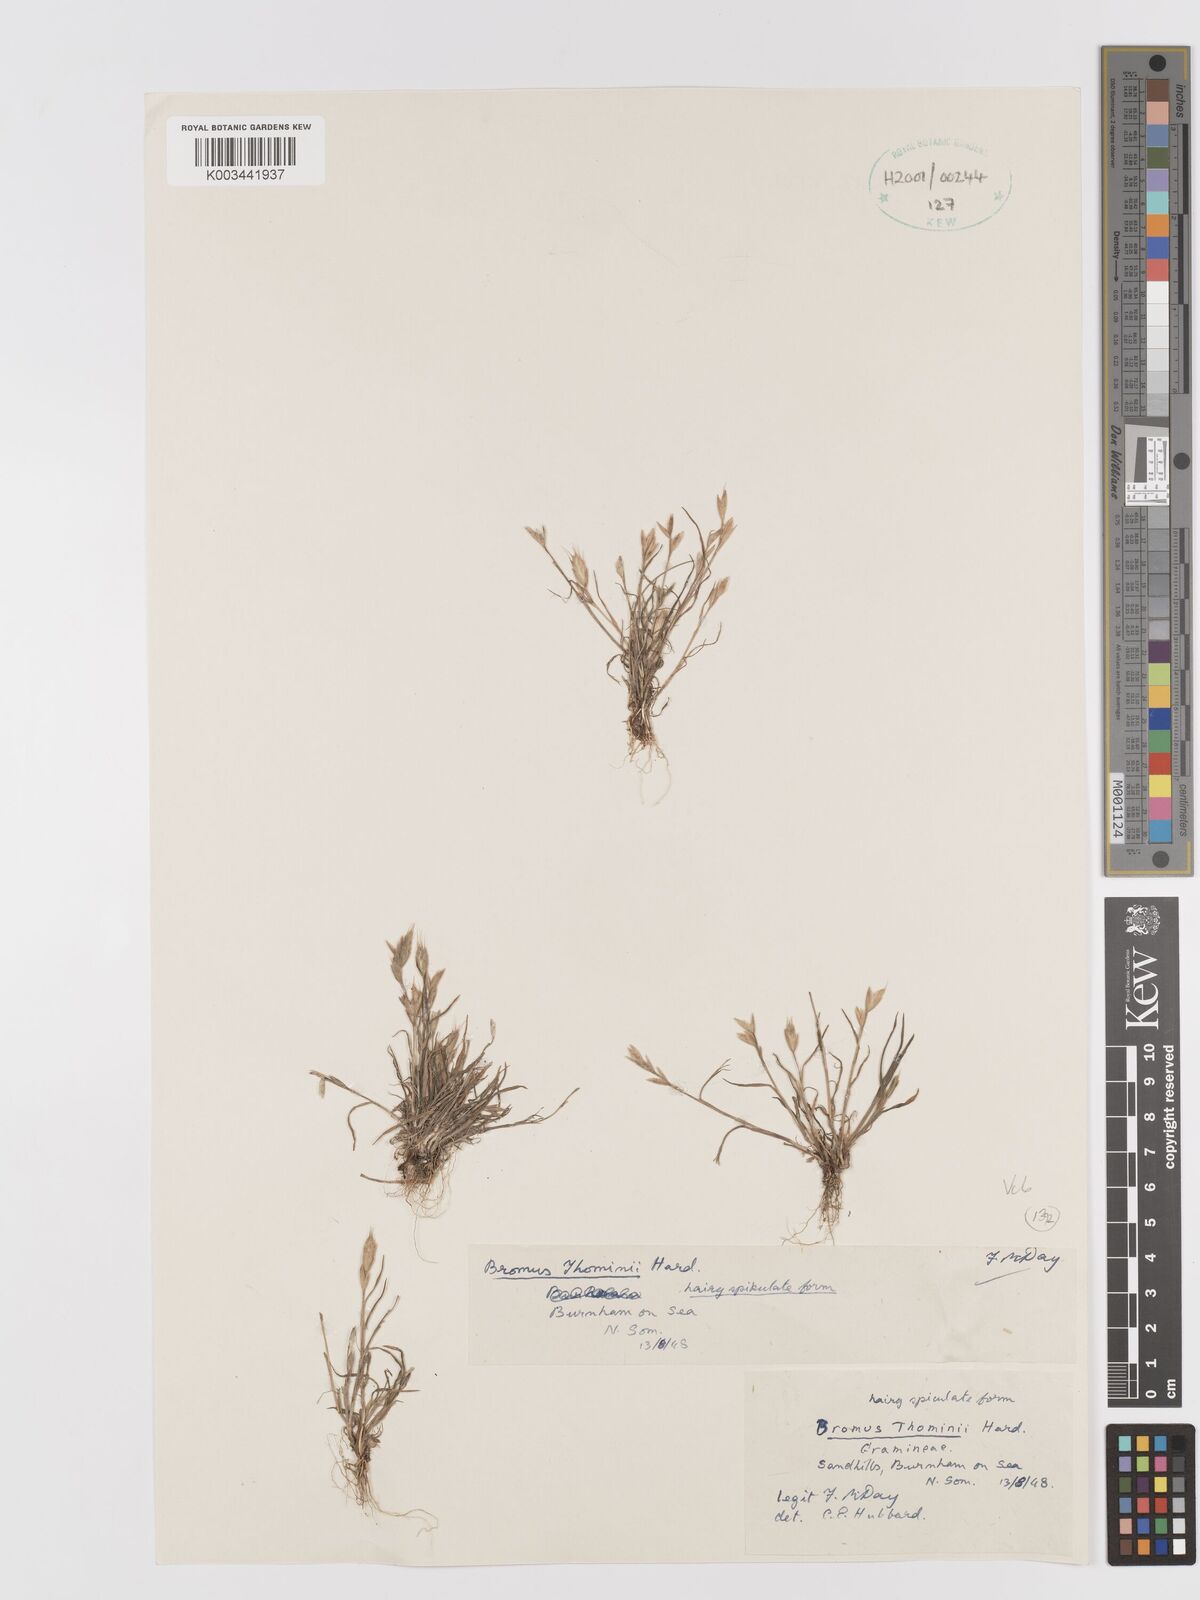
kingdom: Plantae
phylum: Tracheophyta
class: Liliopsida
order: Poales
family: Poaceae
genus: Bromus
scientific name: Bromus hordeaceus
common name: Soft brome
